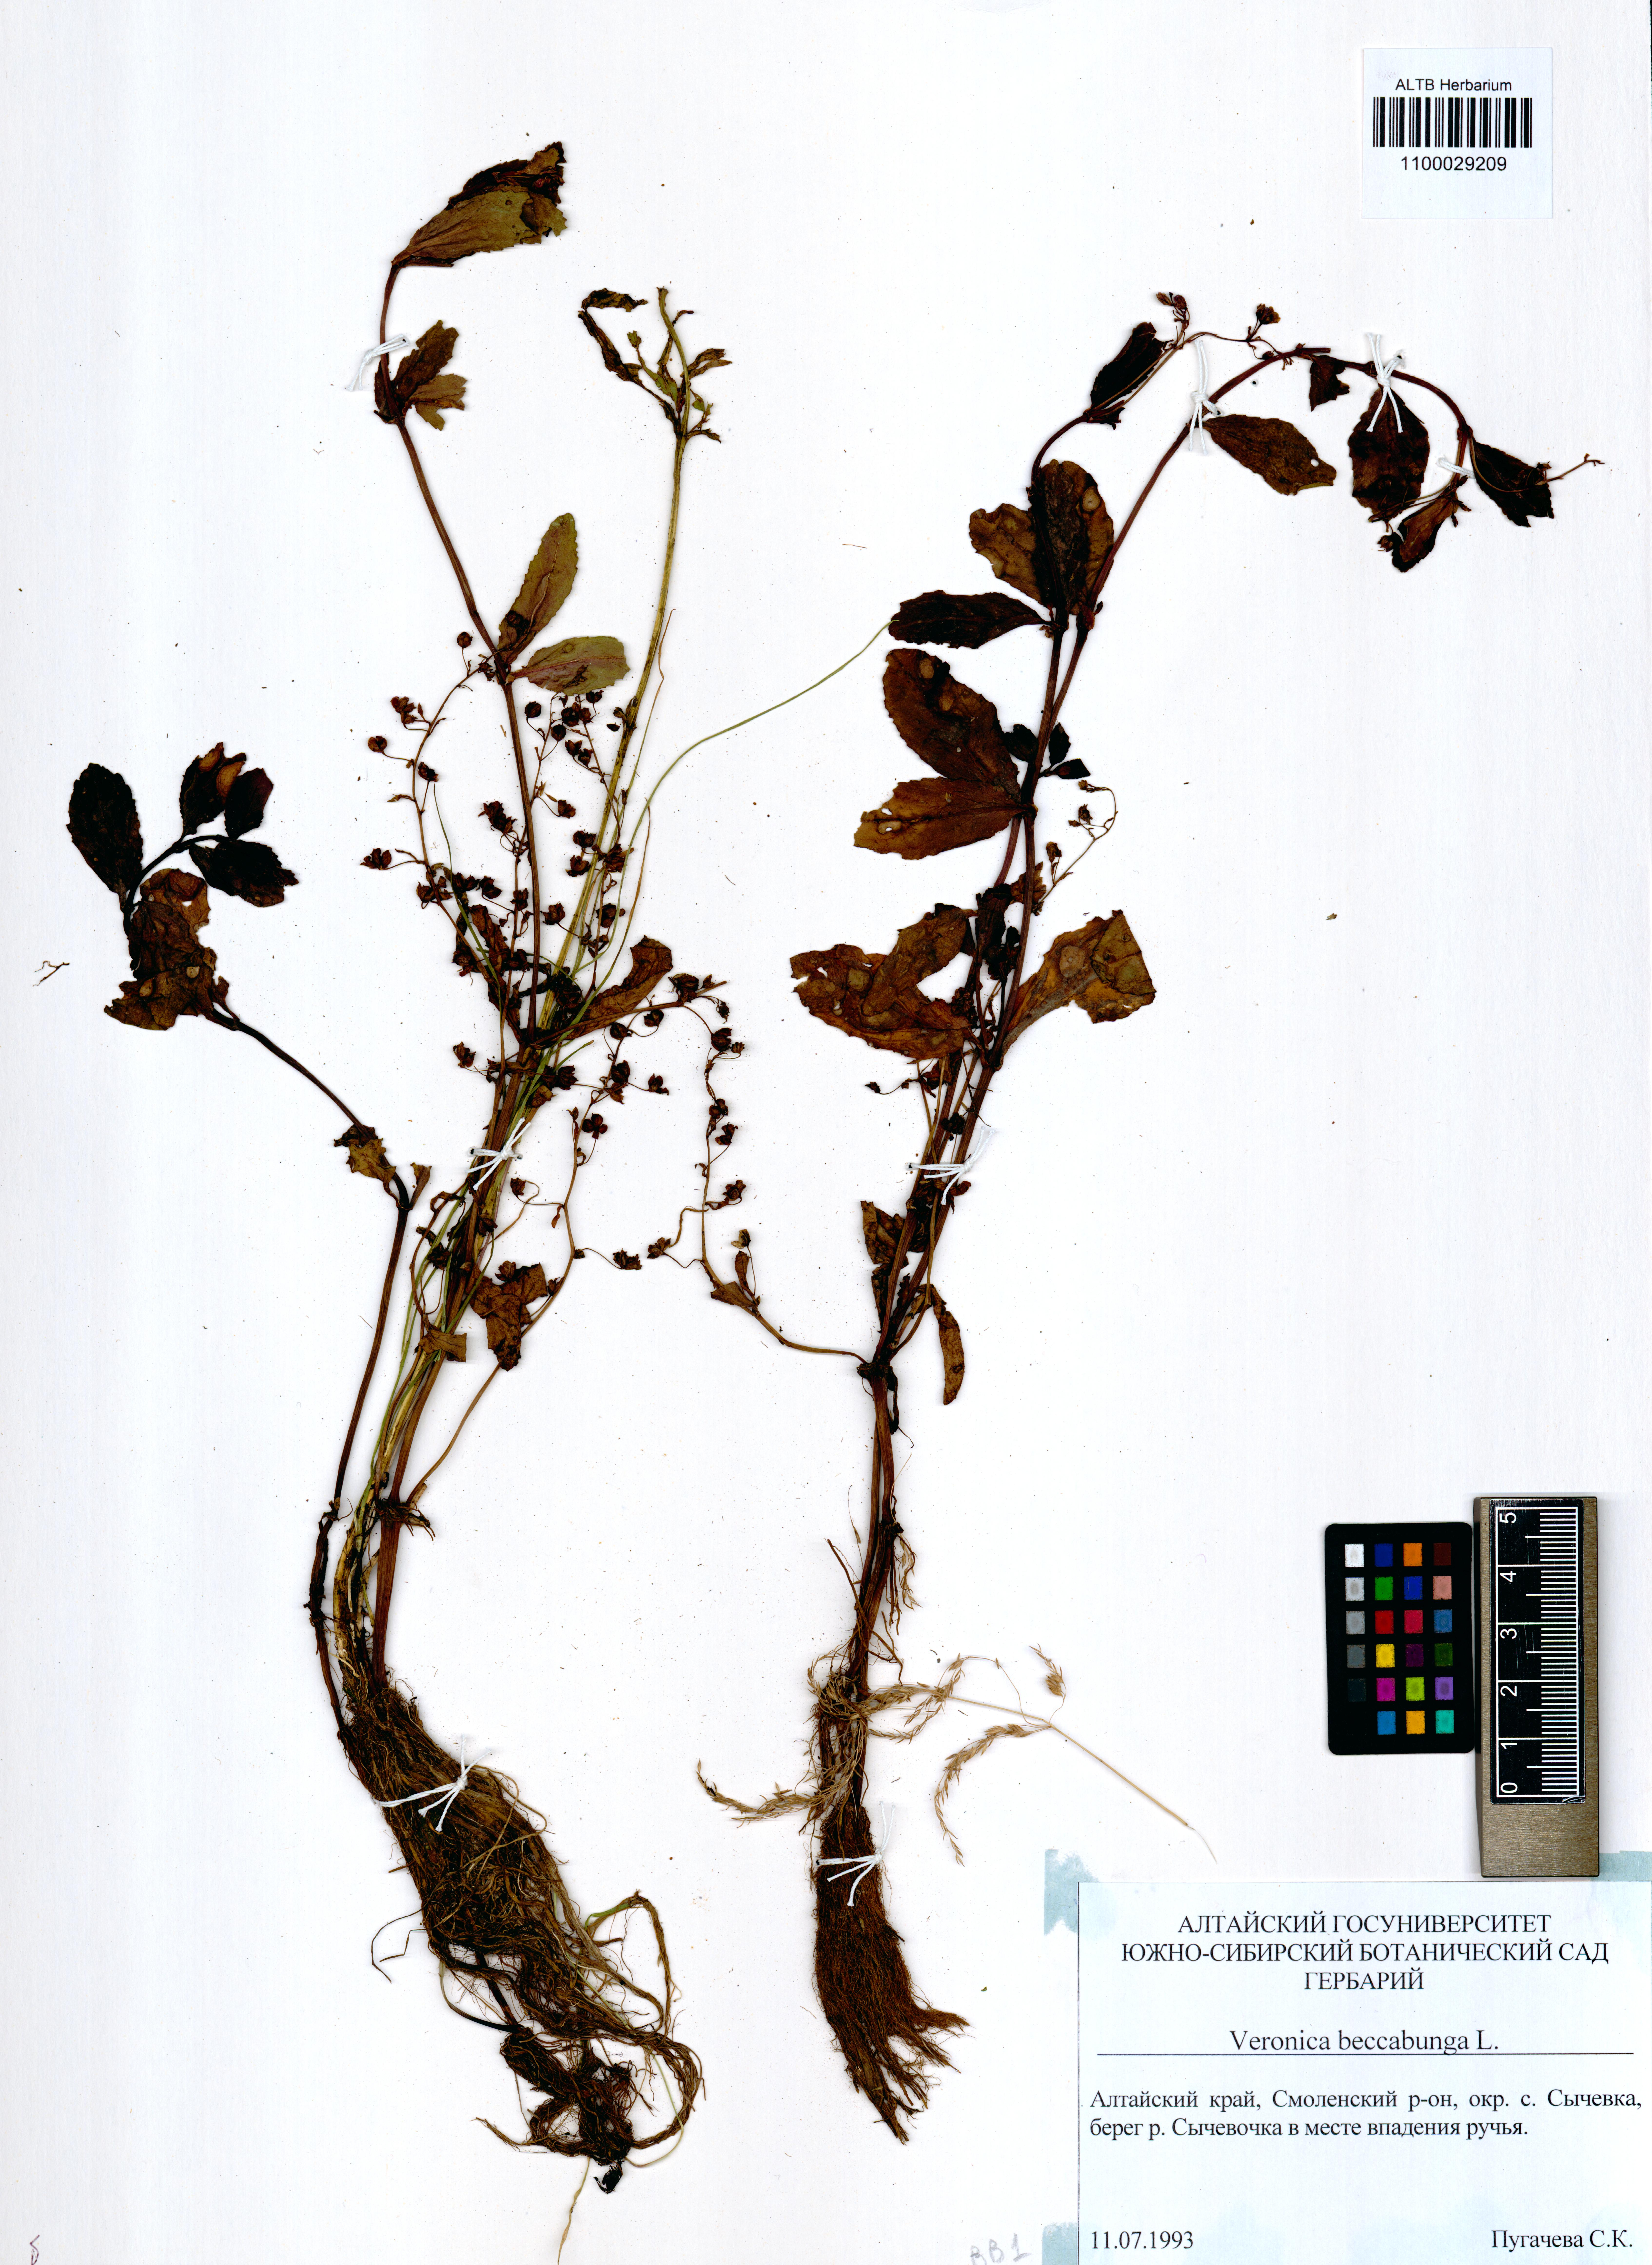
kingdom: Plantae
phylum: Tracheophyta
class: Magnoliopsida
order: Lamiales
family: Plantaginaceae
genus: Veronica
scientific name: Veronica beccabunga
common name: Brooklime
